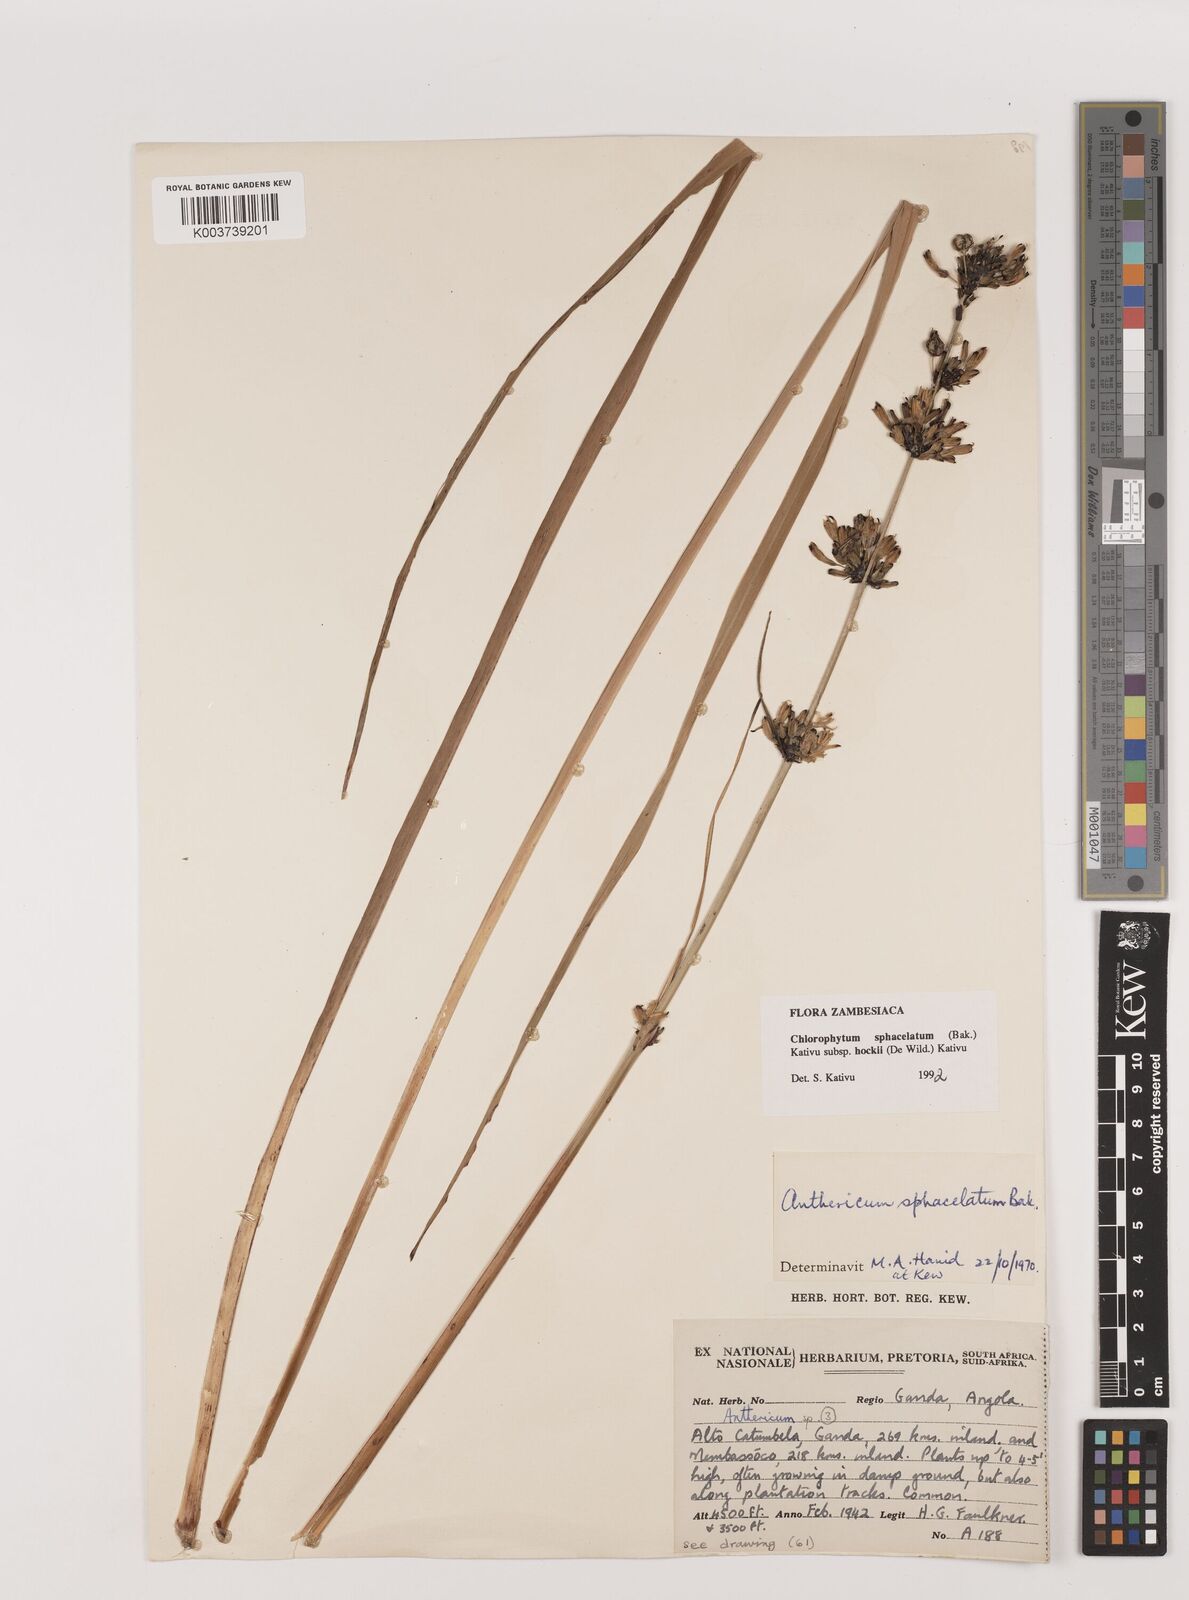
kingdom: Plantae
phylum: Tracheophyta
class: Liliopsida
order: Asparagales
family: Asparagaceae
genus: Chlorophytum
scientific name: Chlorophytum sphacelatum
